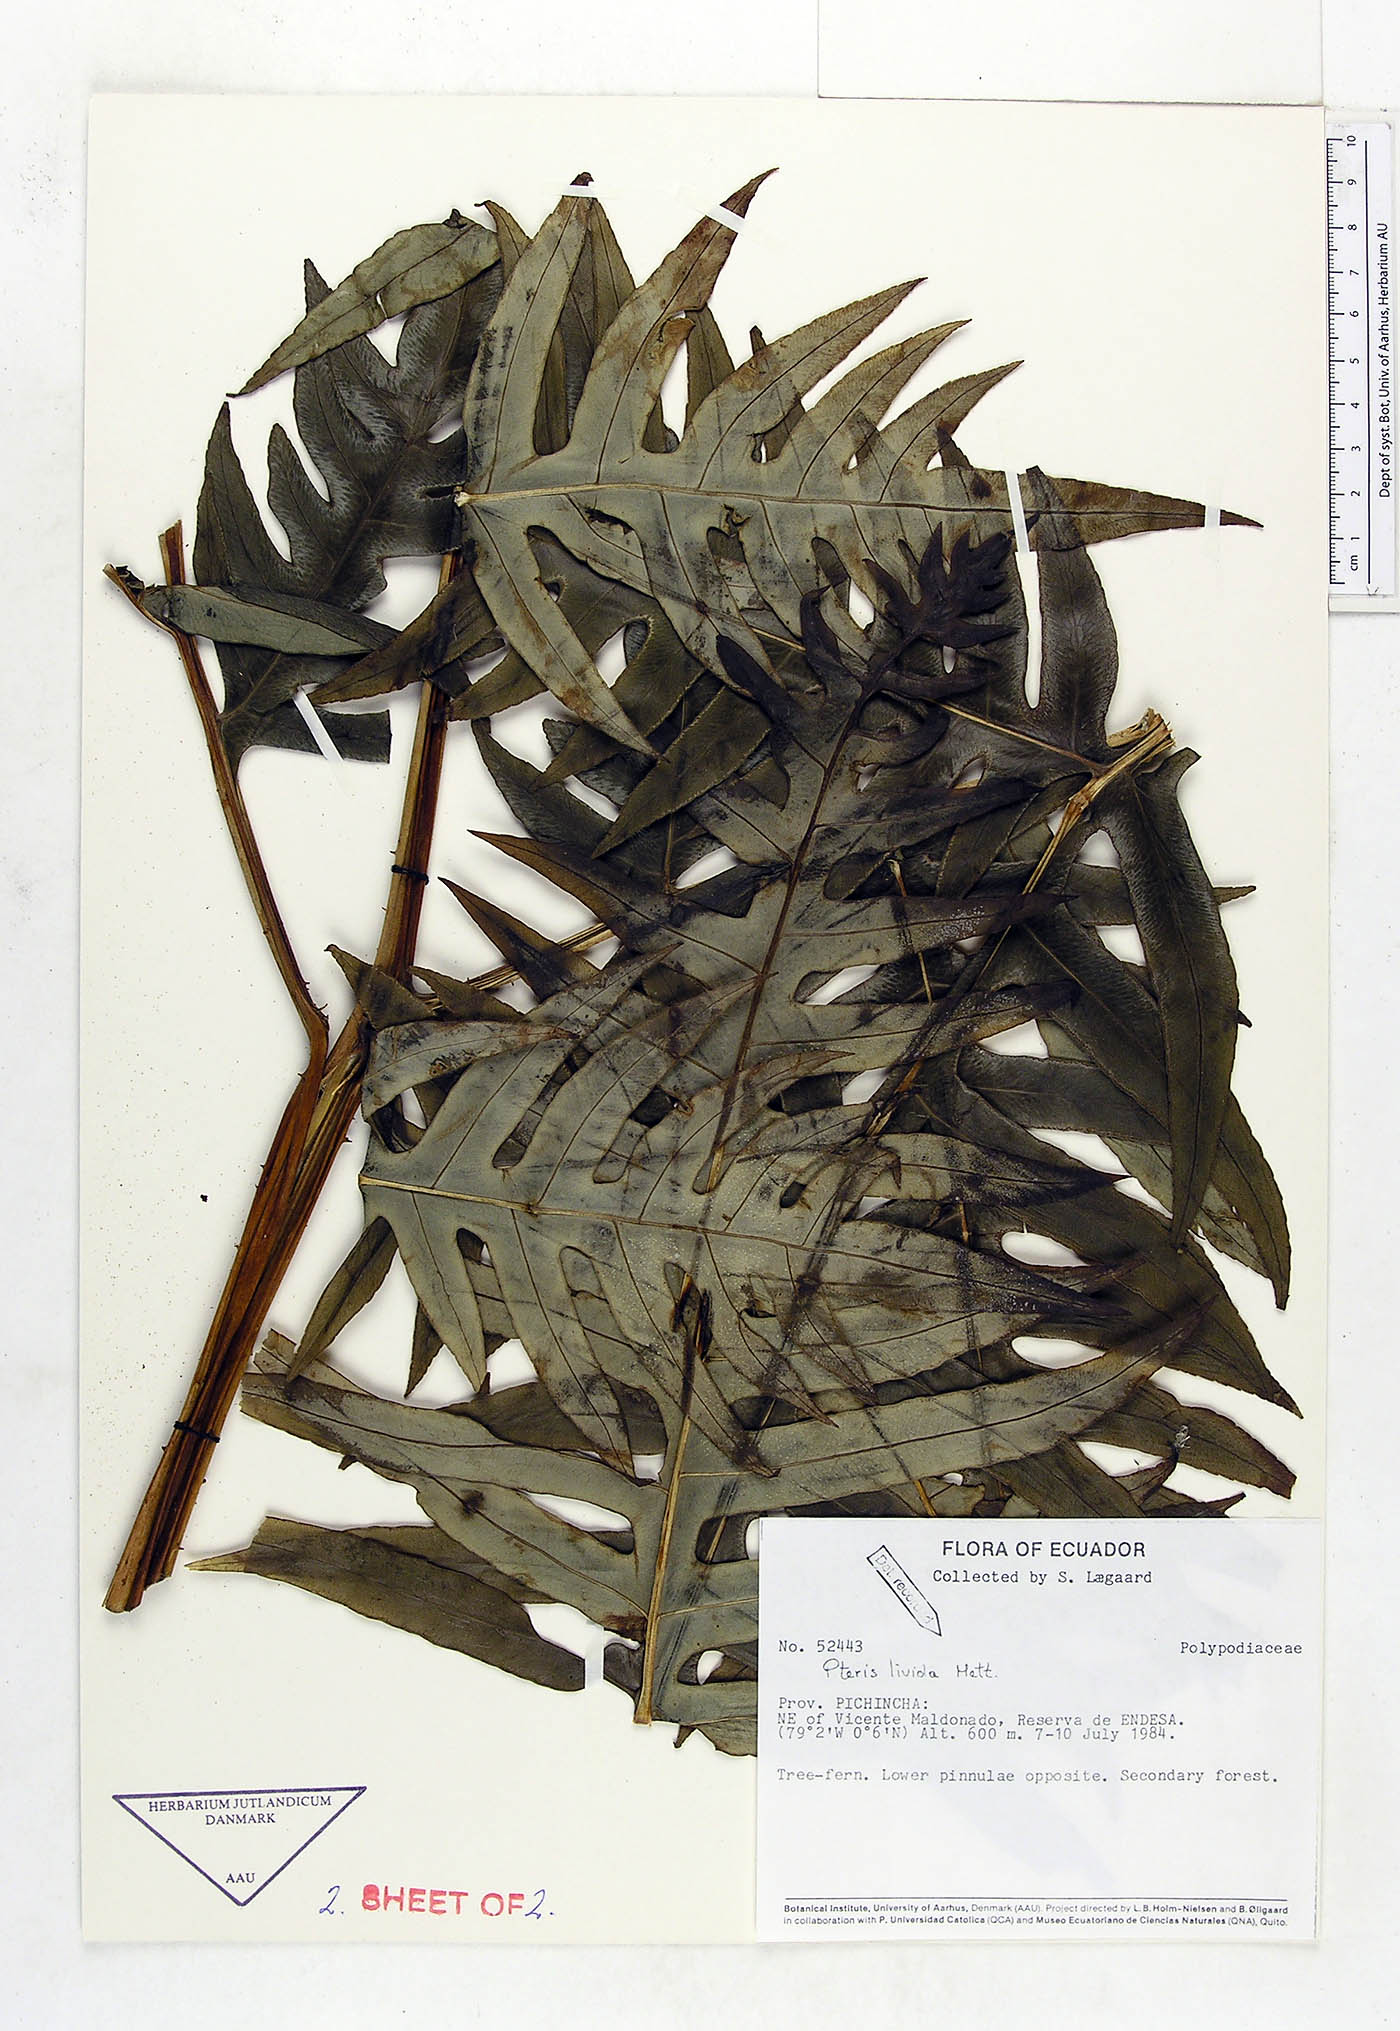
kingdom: Plantae
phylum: Tracheophyta
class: Polypodiopsida
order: Polypodiales
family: Pteridaceae
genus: Pteris
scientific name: Pteris livida
